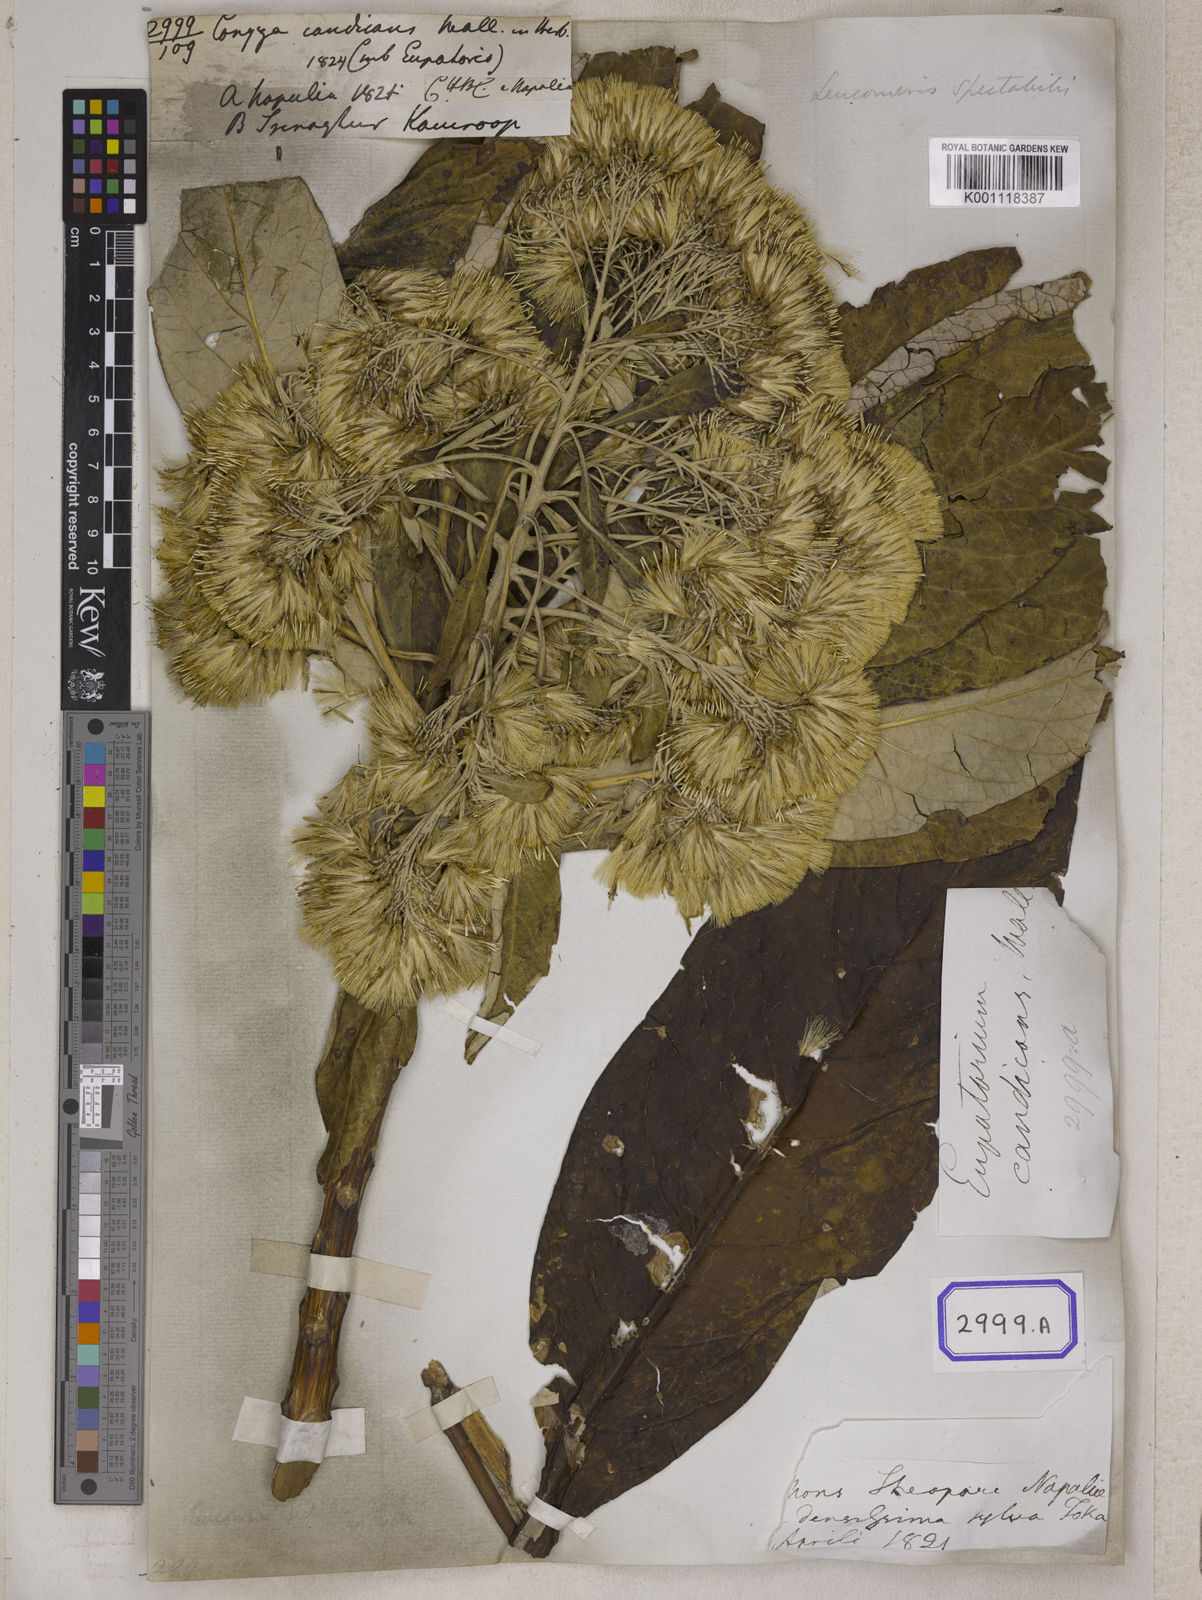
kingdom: Plantae
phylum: Tracheophyta
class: Magnoliopsida
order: Asterales
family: Asteraceae
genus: Erigeron
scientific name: Erigeron Conyza candicans
